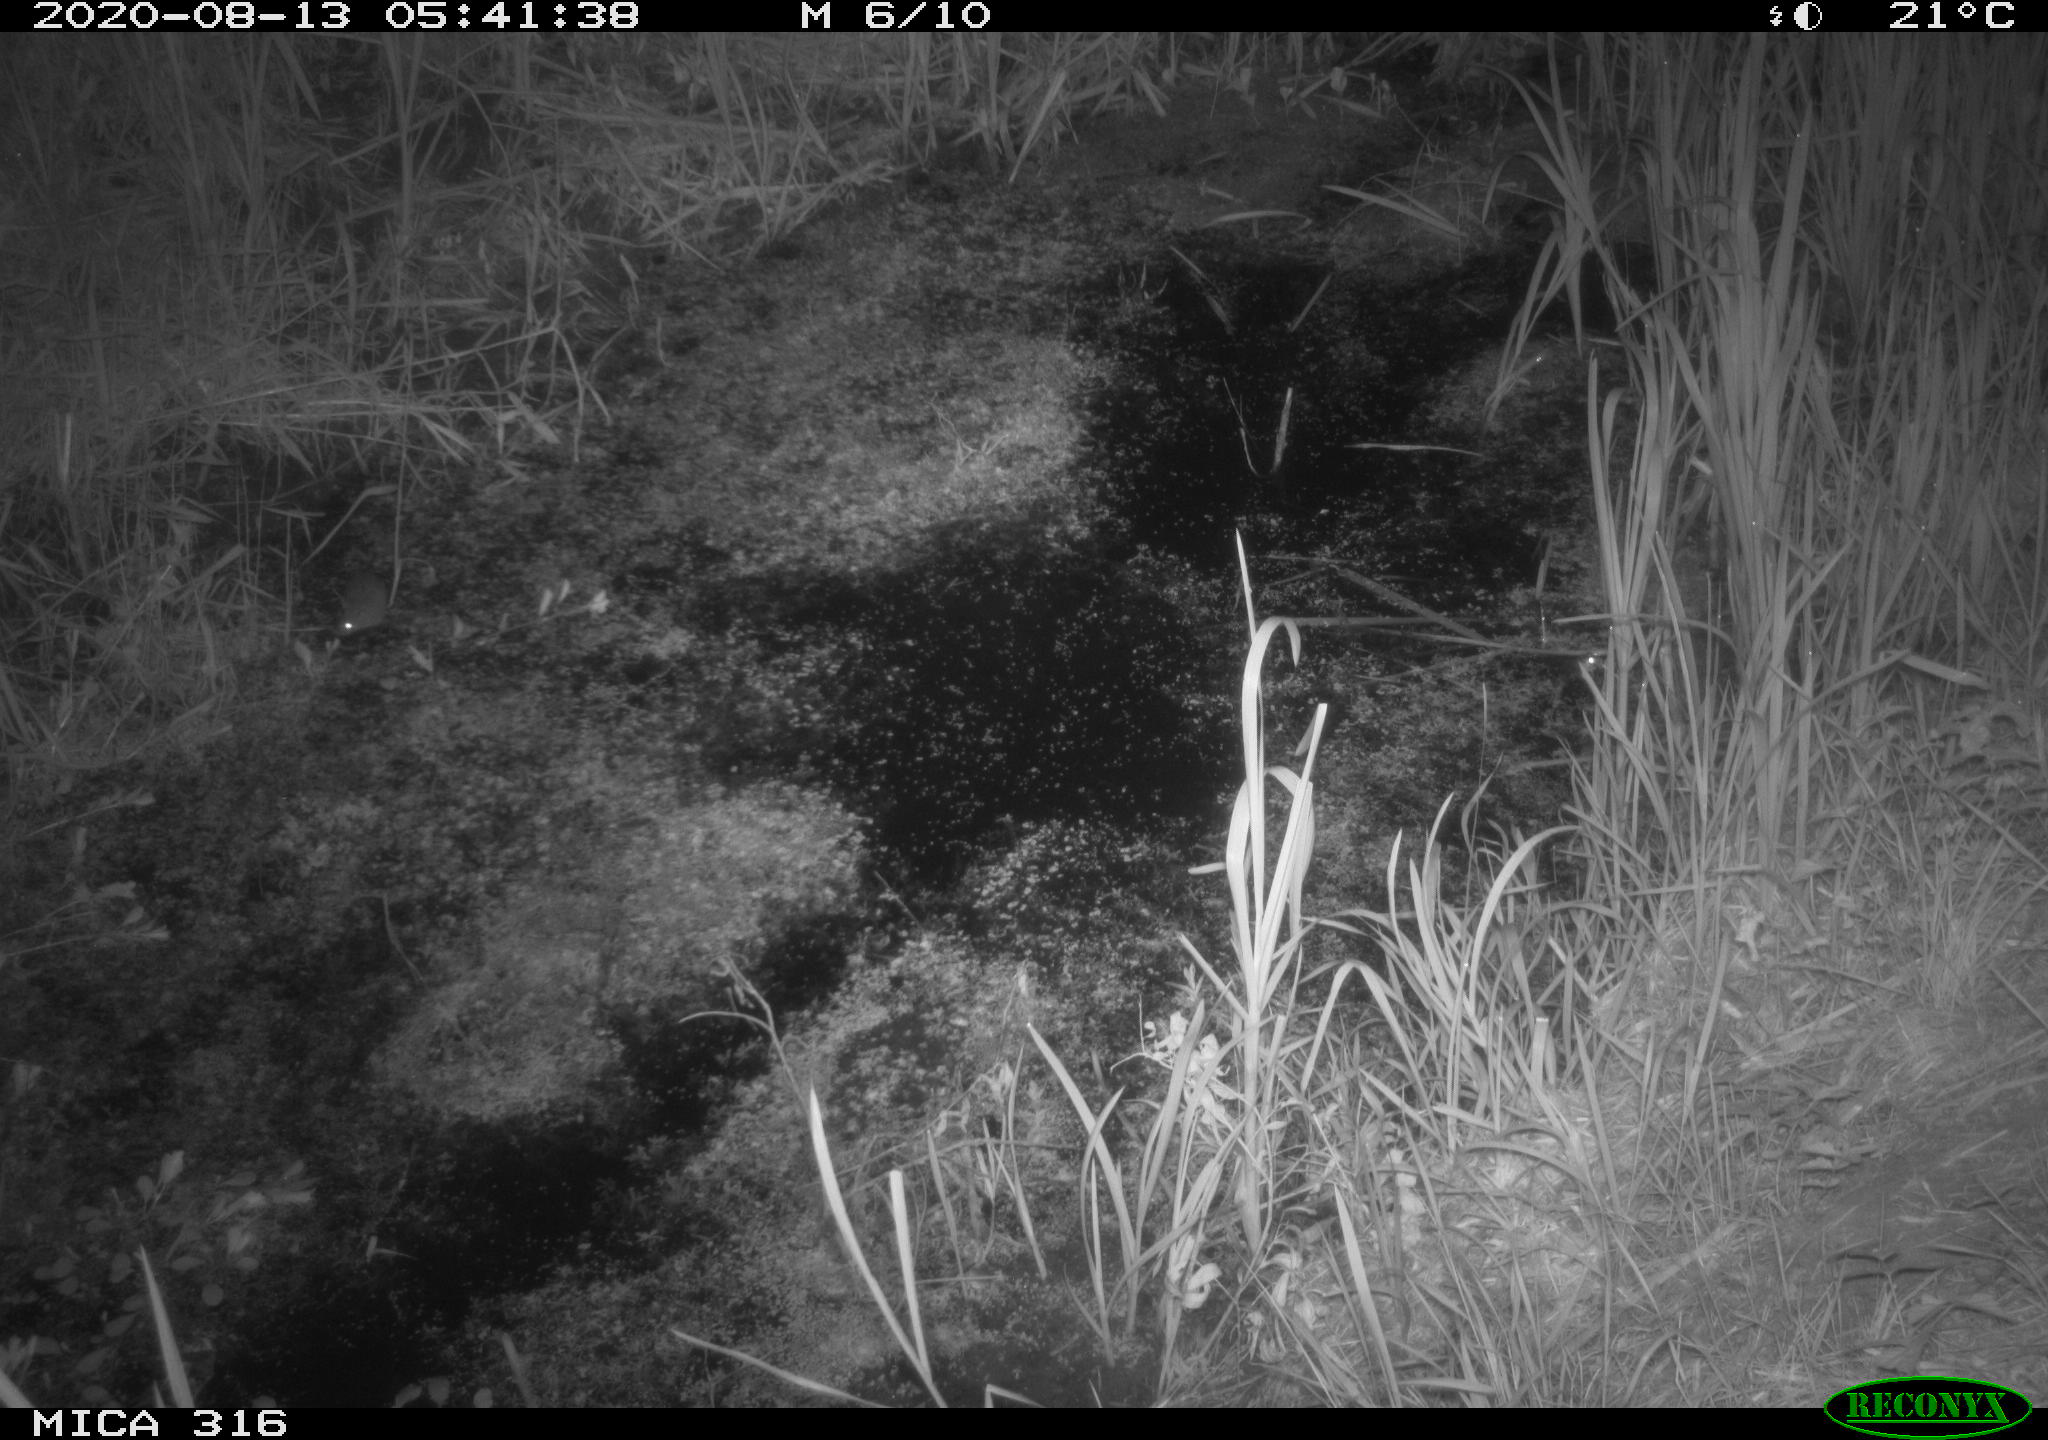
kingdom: Animalia
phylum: Chordata
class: Mammalia
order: Rodentia
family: Muridae
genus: Rattus
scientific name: Rattus norvegicus
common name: Brown rat
